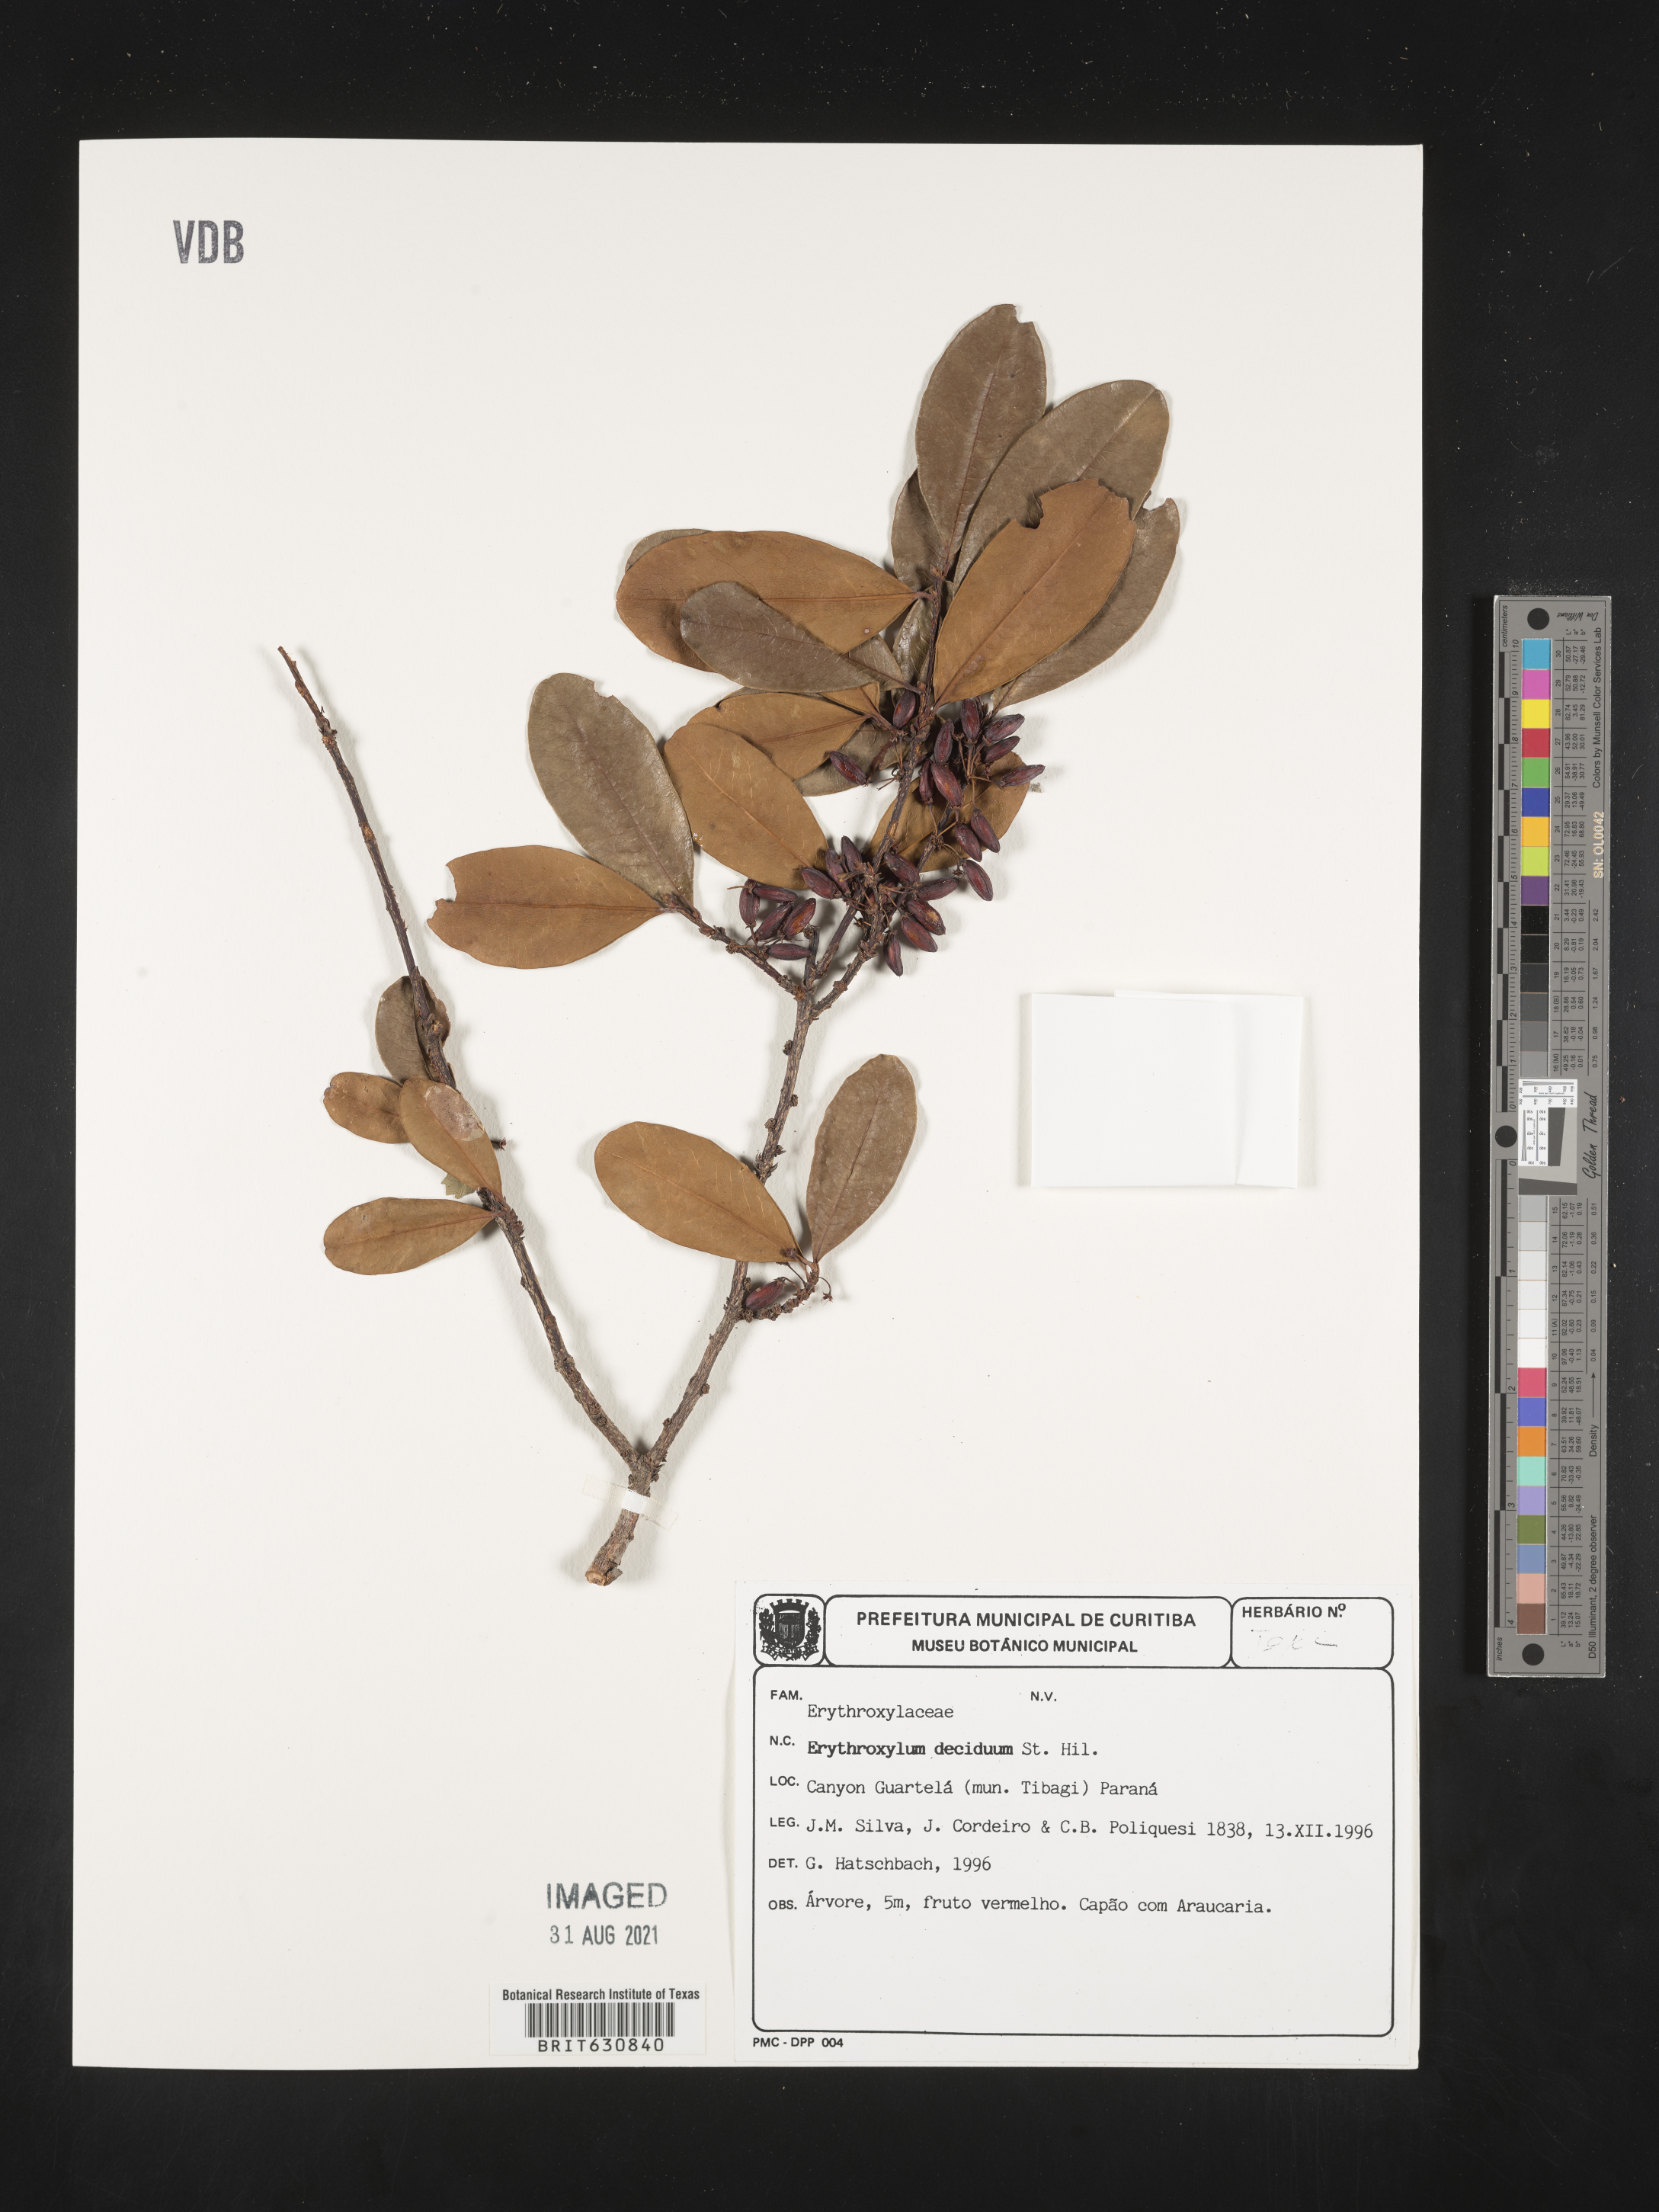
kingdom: Plantae
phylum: Tracheophyta
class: Magnoliopsida
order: Malpighiales
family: Erythroxylaceae
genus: Erythroxylum
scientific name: Erythroxylum
